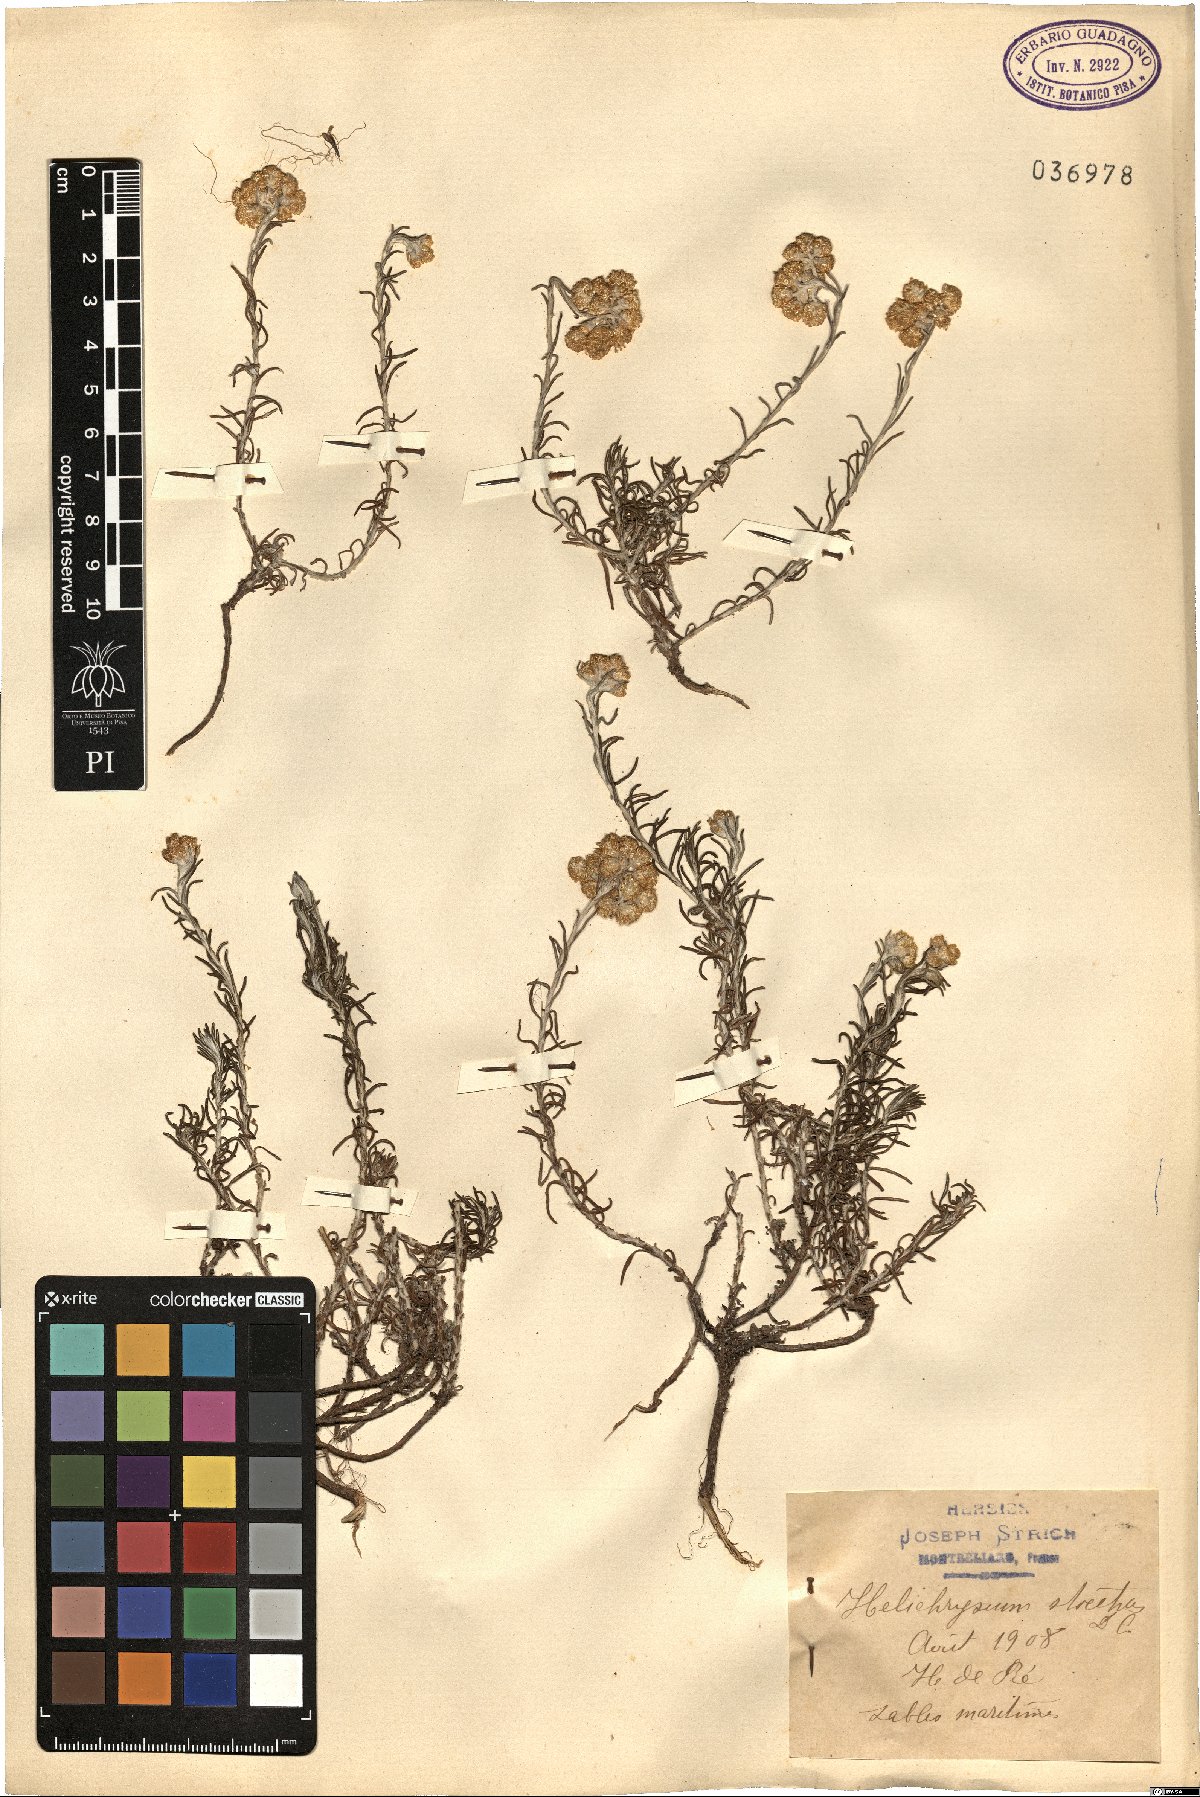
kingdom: Plantae
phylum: Tracheophyta
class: Magnoliopsida
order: Asterales
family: Asteraceae
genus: Helichrysum
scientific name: Helichrysum stoechas
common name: Goldilocks
